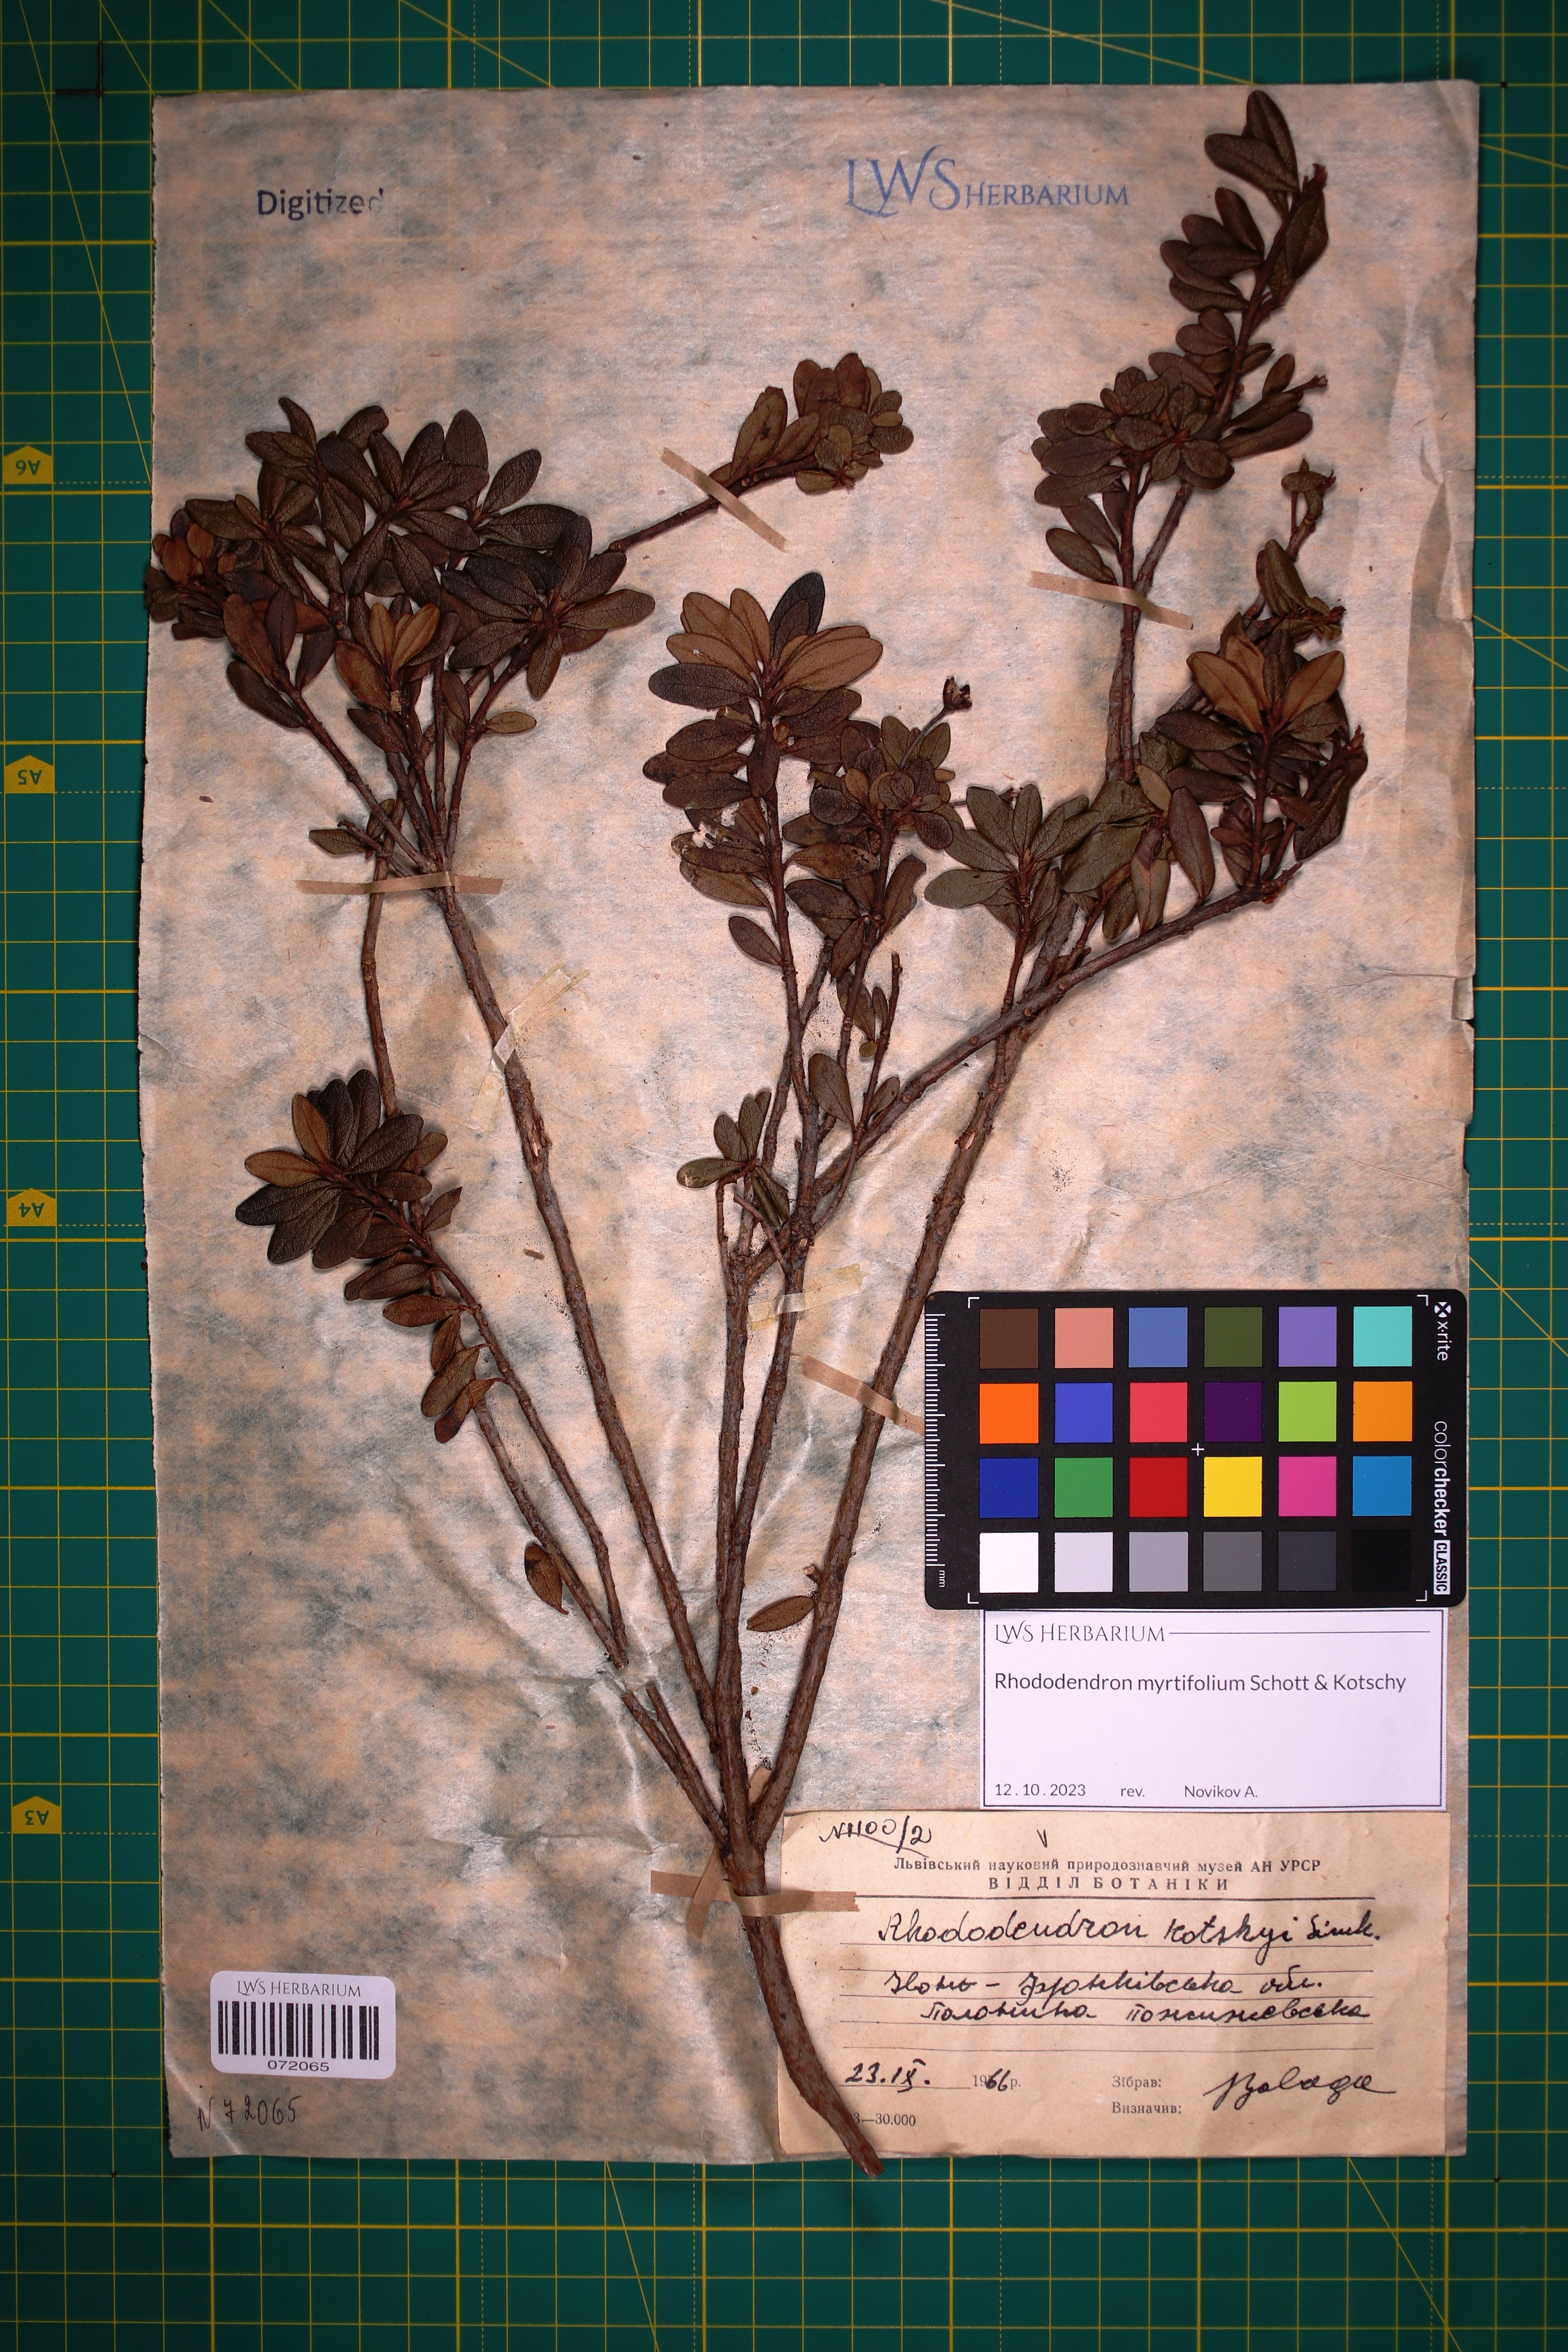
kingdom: Plantae
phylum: Tracheophyta
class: Magnoliopsida
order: Ericales
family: Ericaceae
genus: Rhododendron
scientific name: Rhododendron kotschyi
